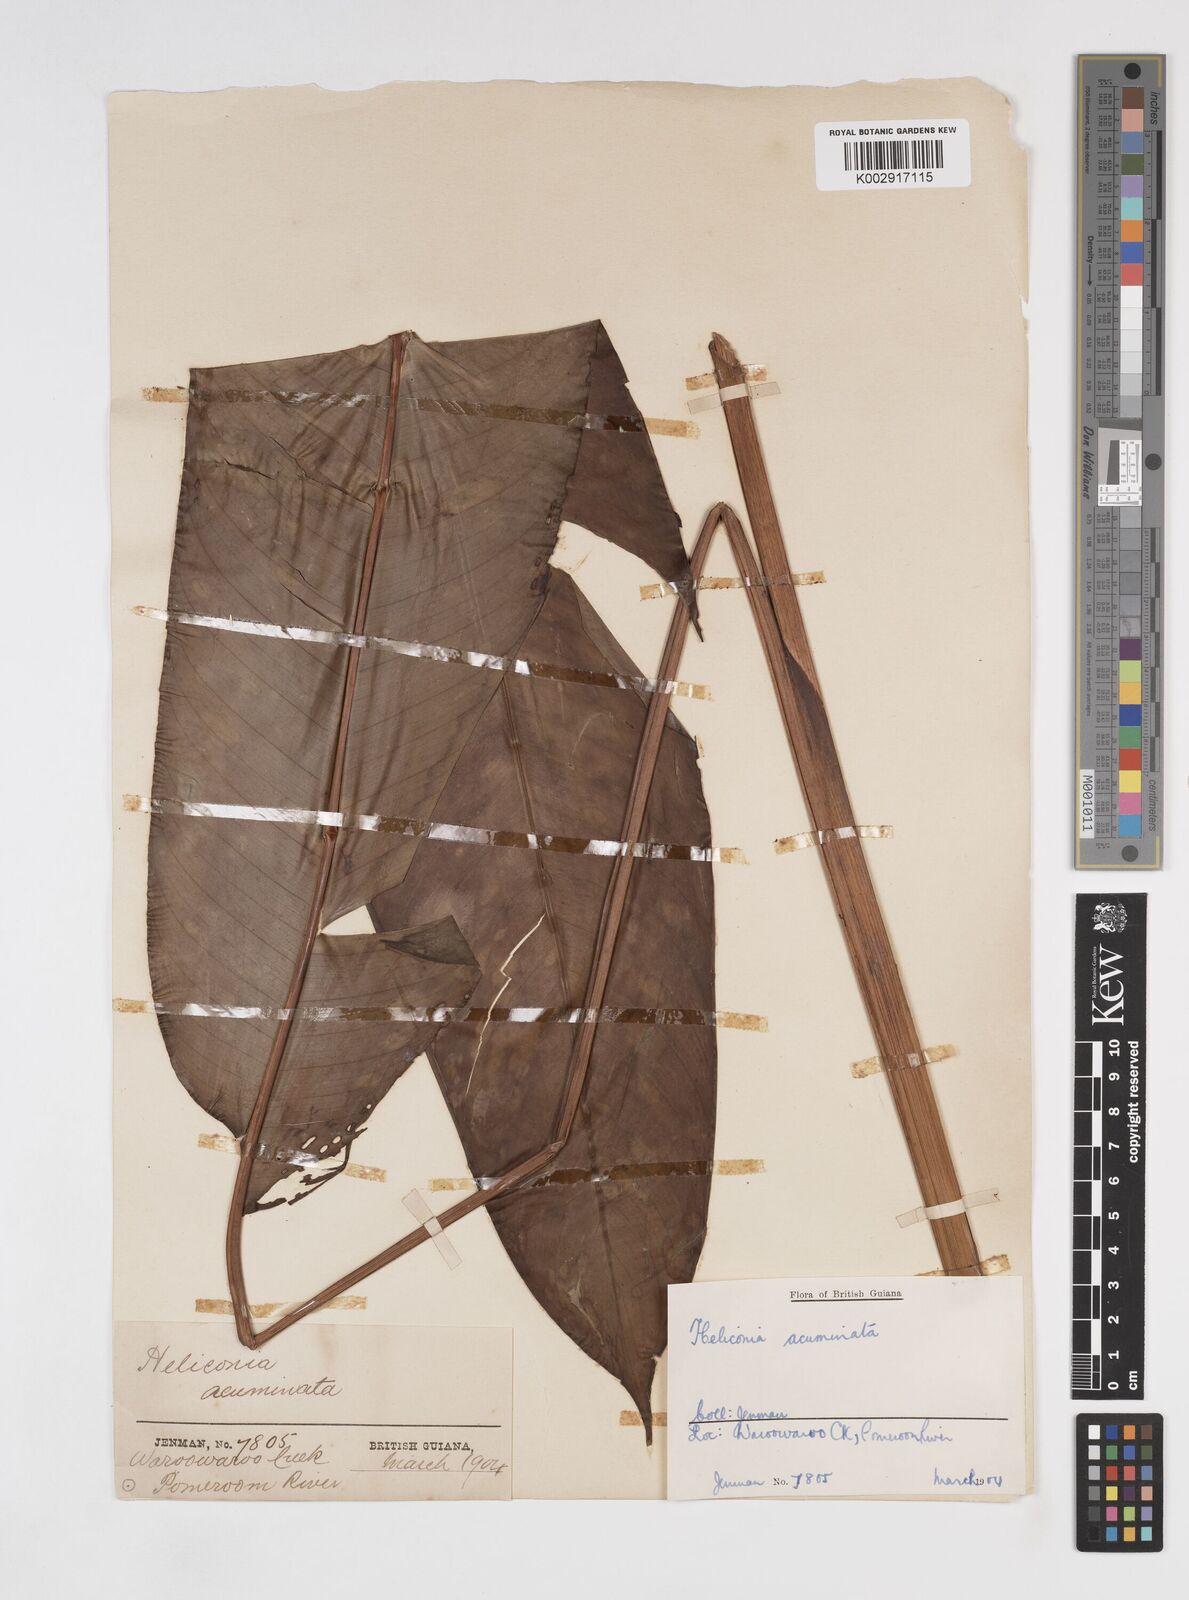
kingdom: Plantae
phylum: Tracheophyta
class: Liliopsida
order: Zingiberales
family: Heliconiaceae
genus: Heliconia
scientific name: Heliconia acuminata
